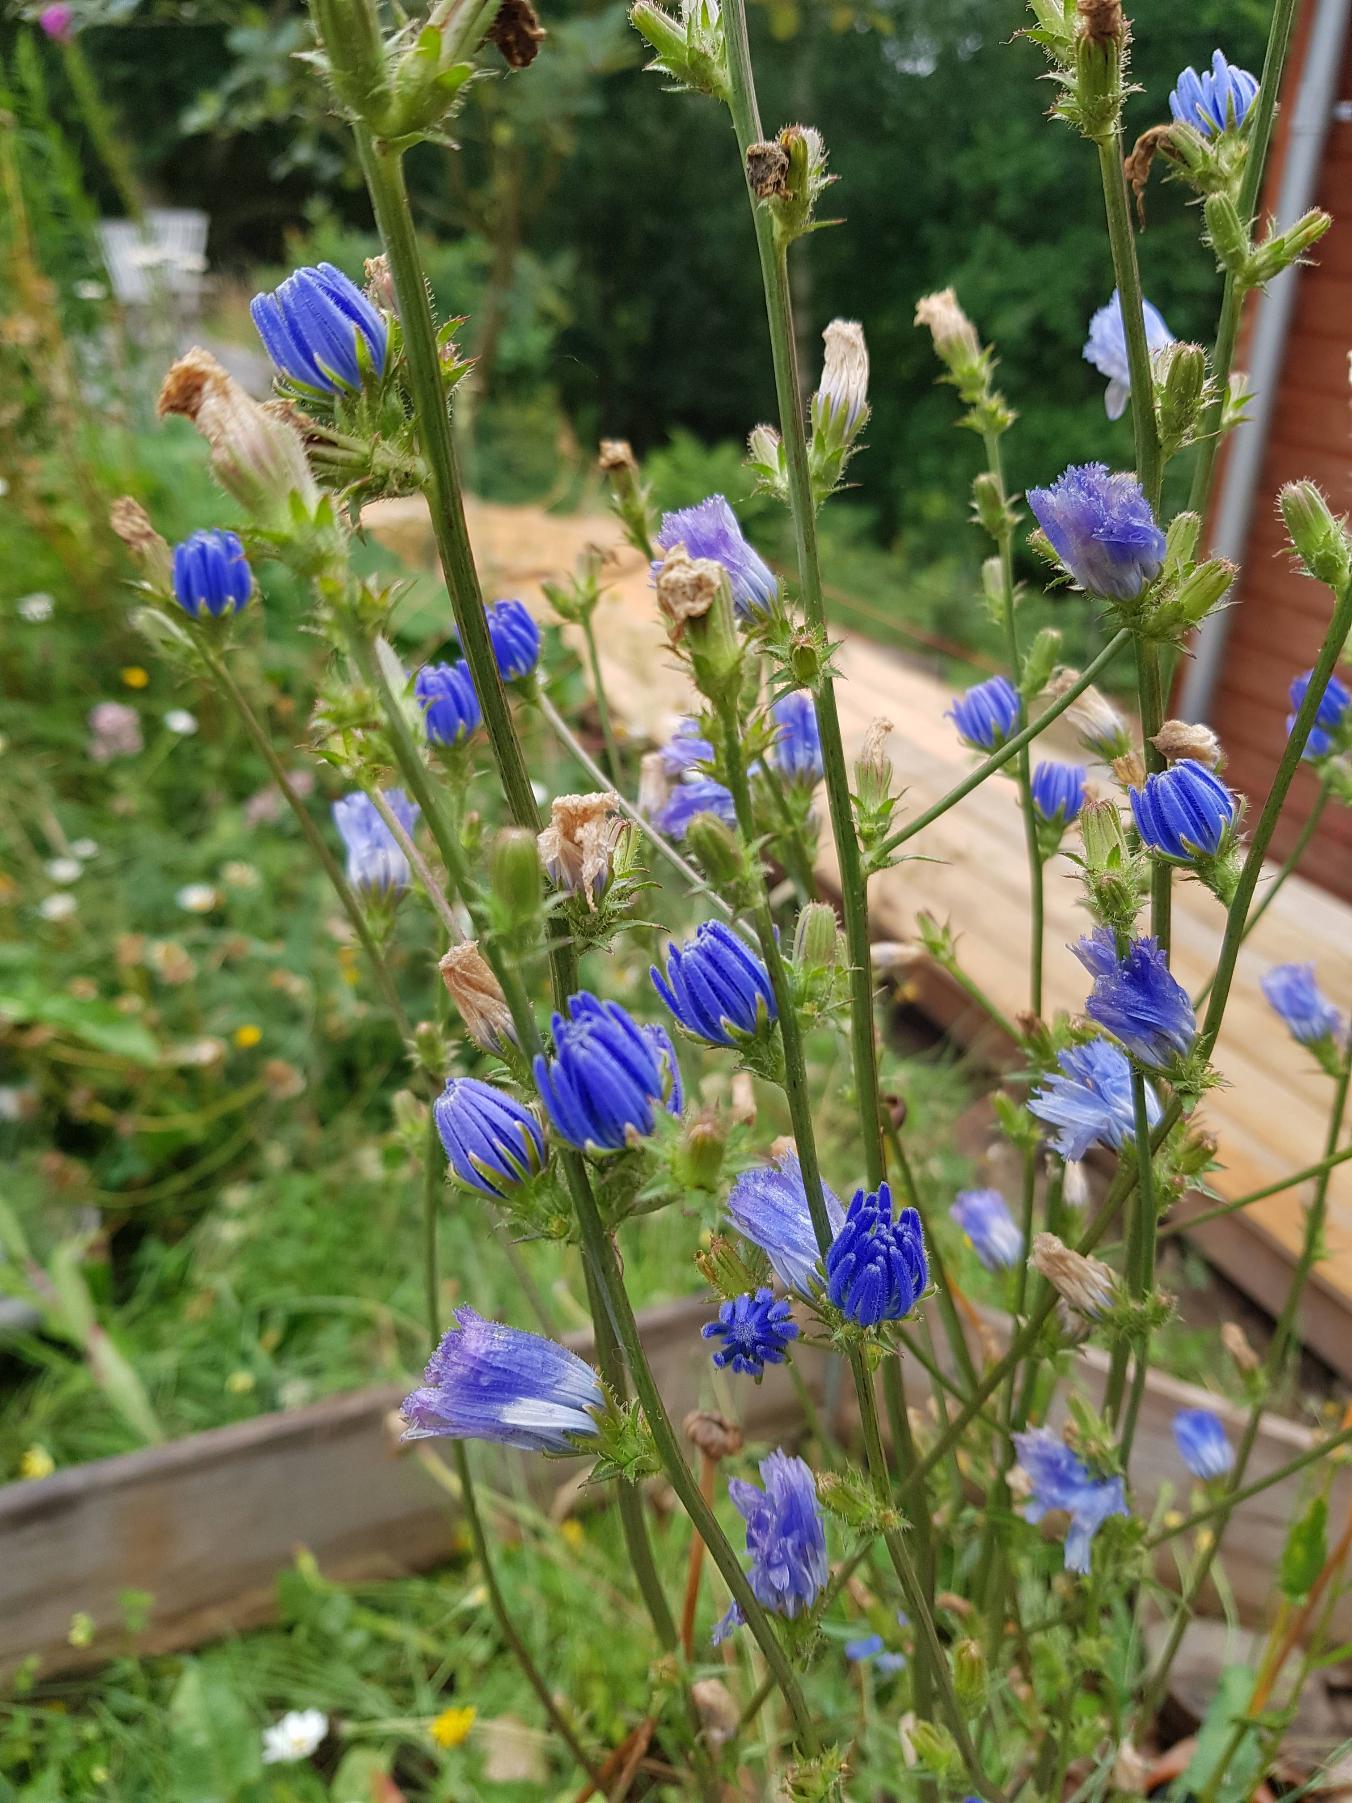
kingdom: Plantae
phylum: Tracheophyta
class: Magnoliopsida
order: Asterales
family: Asteraceae
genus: Cichorium
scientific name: Cichorium intybus
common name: Cikorie
